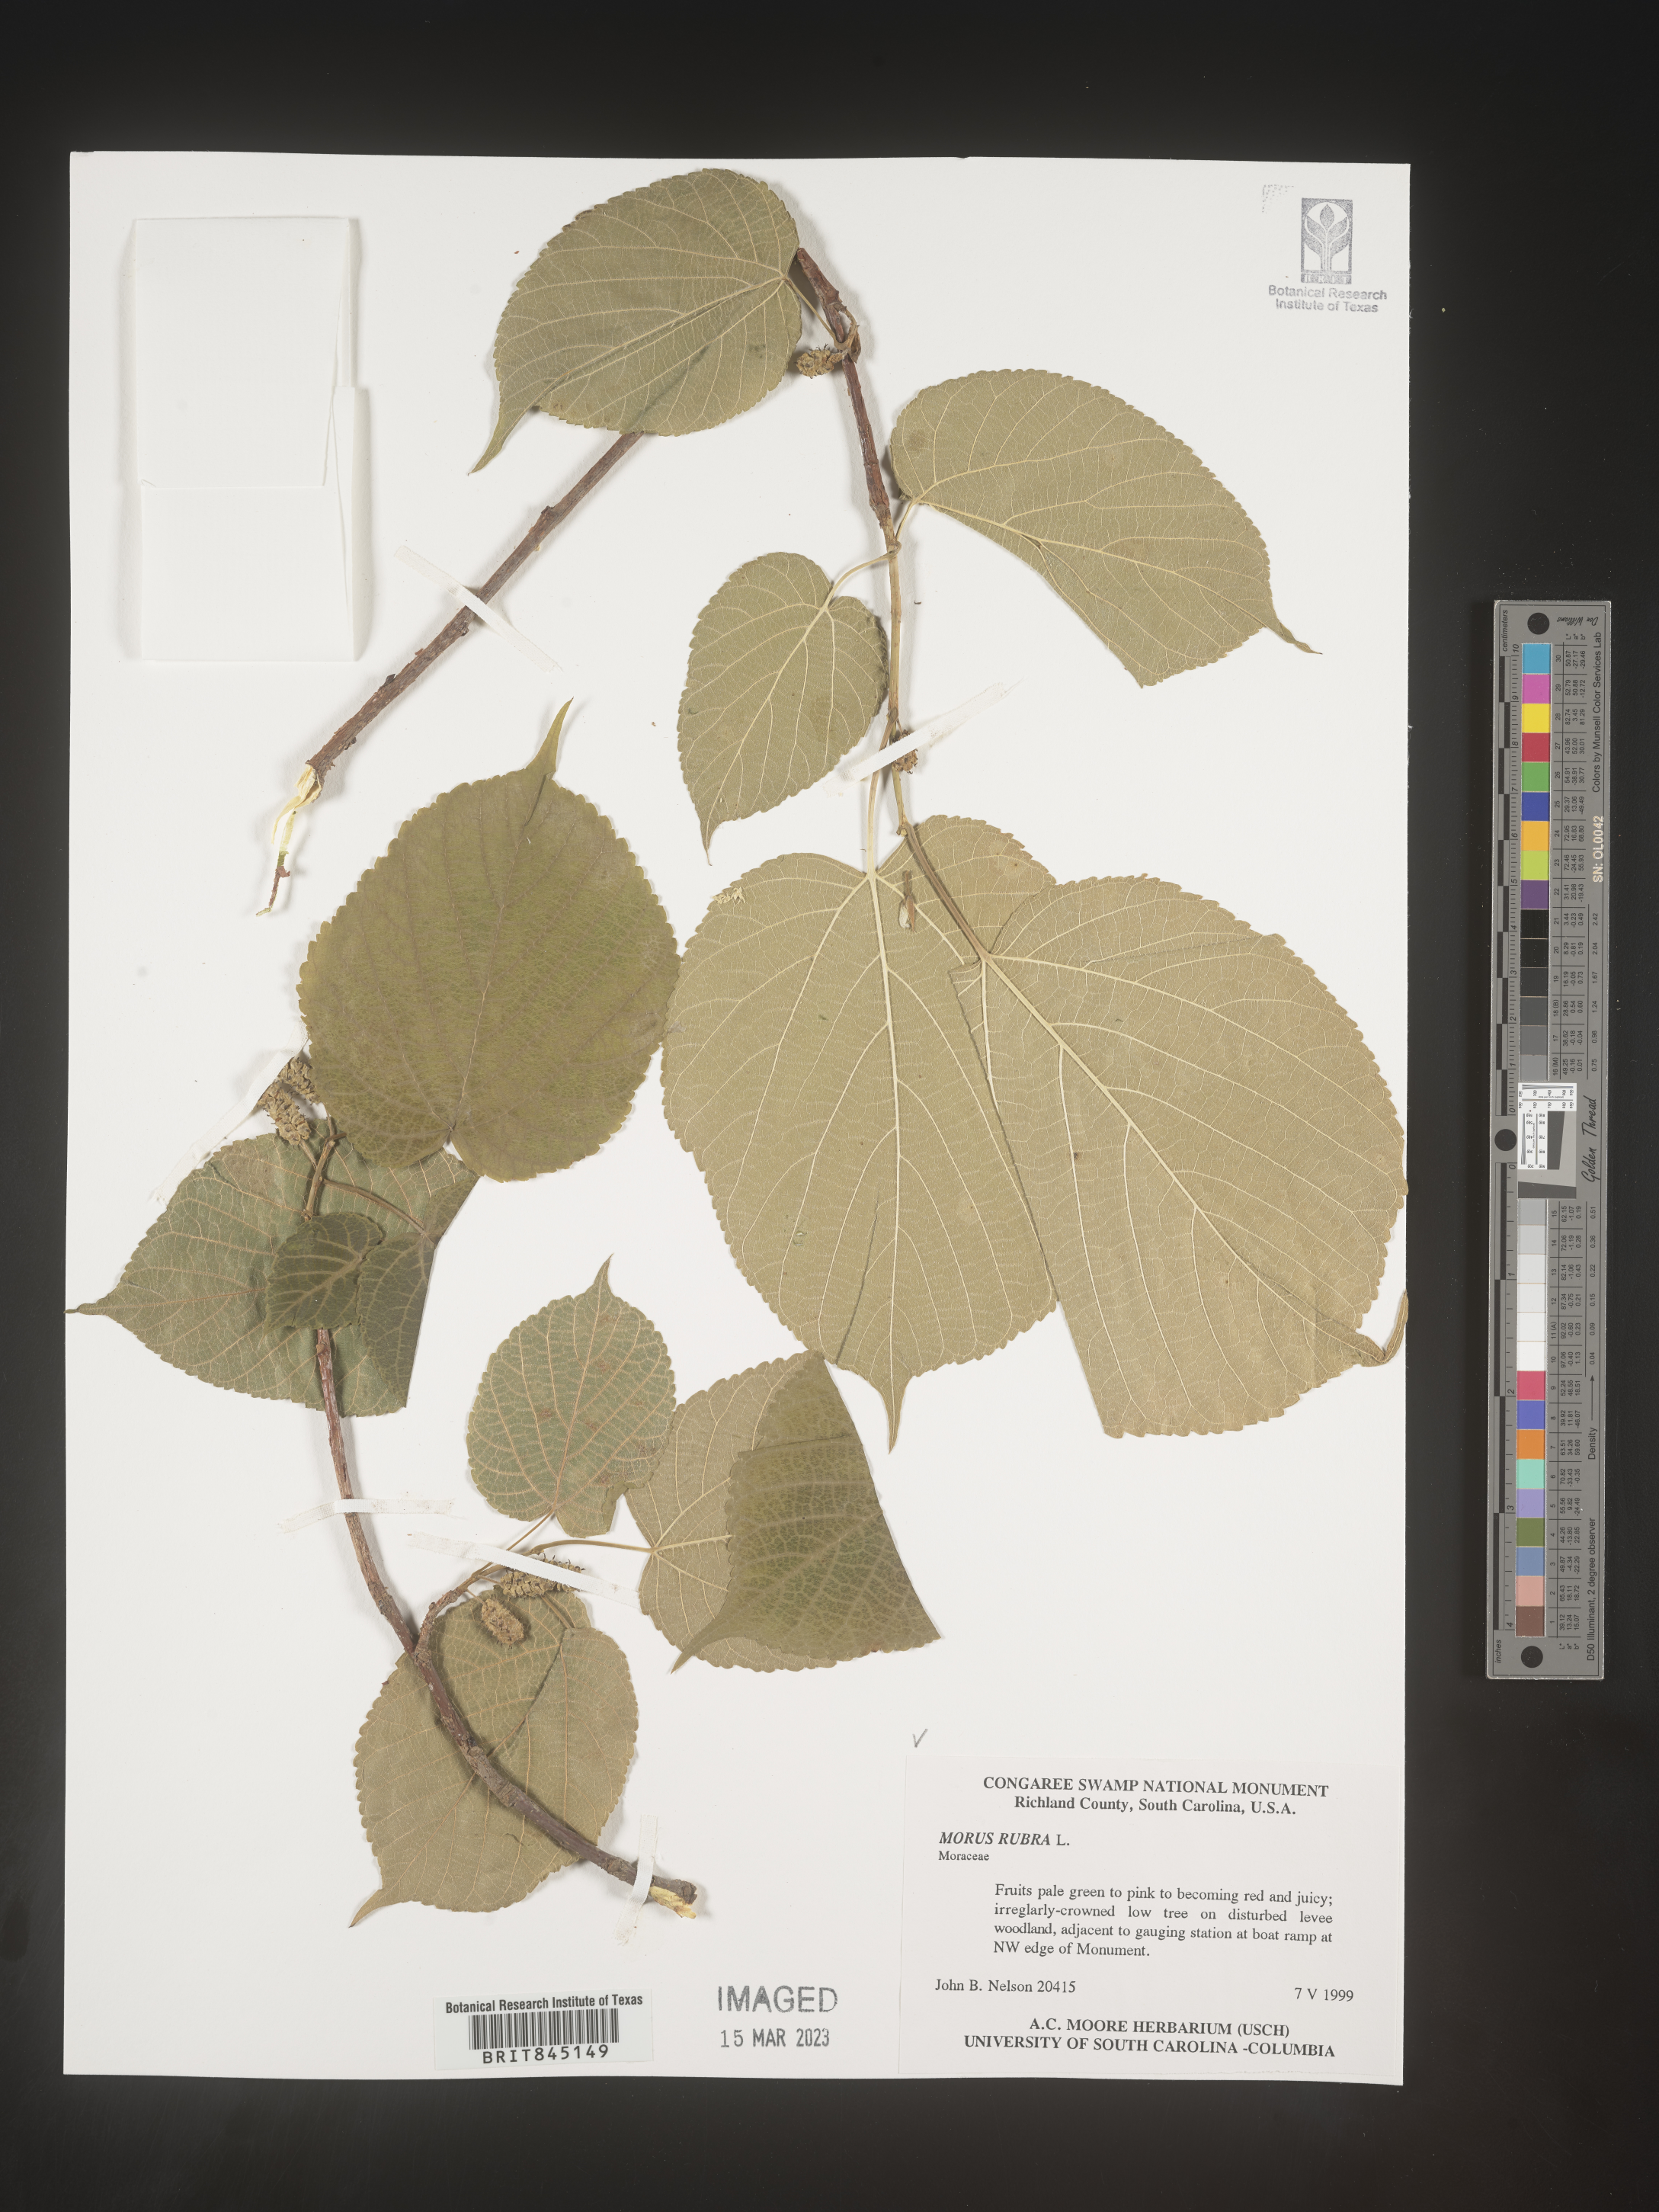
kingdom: Plantae
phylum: Tracheophyta
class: Magnoliopsida
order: Rosales
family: Moraceae
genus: Morus
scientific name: Morus rubra
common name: Red mulberry
